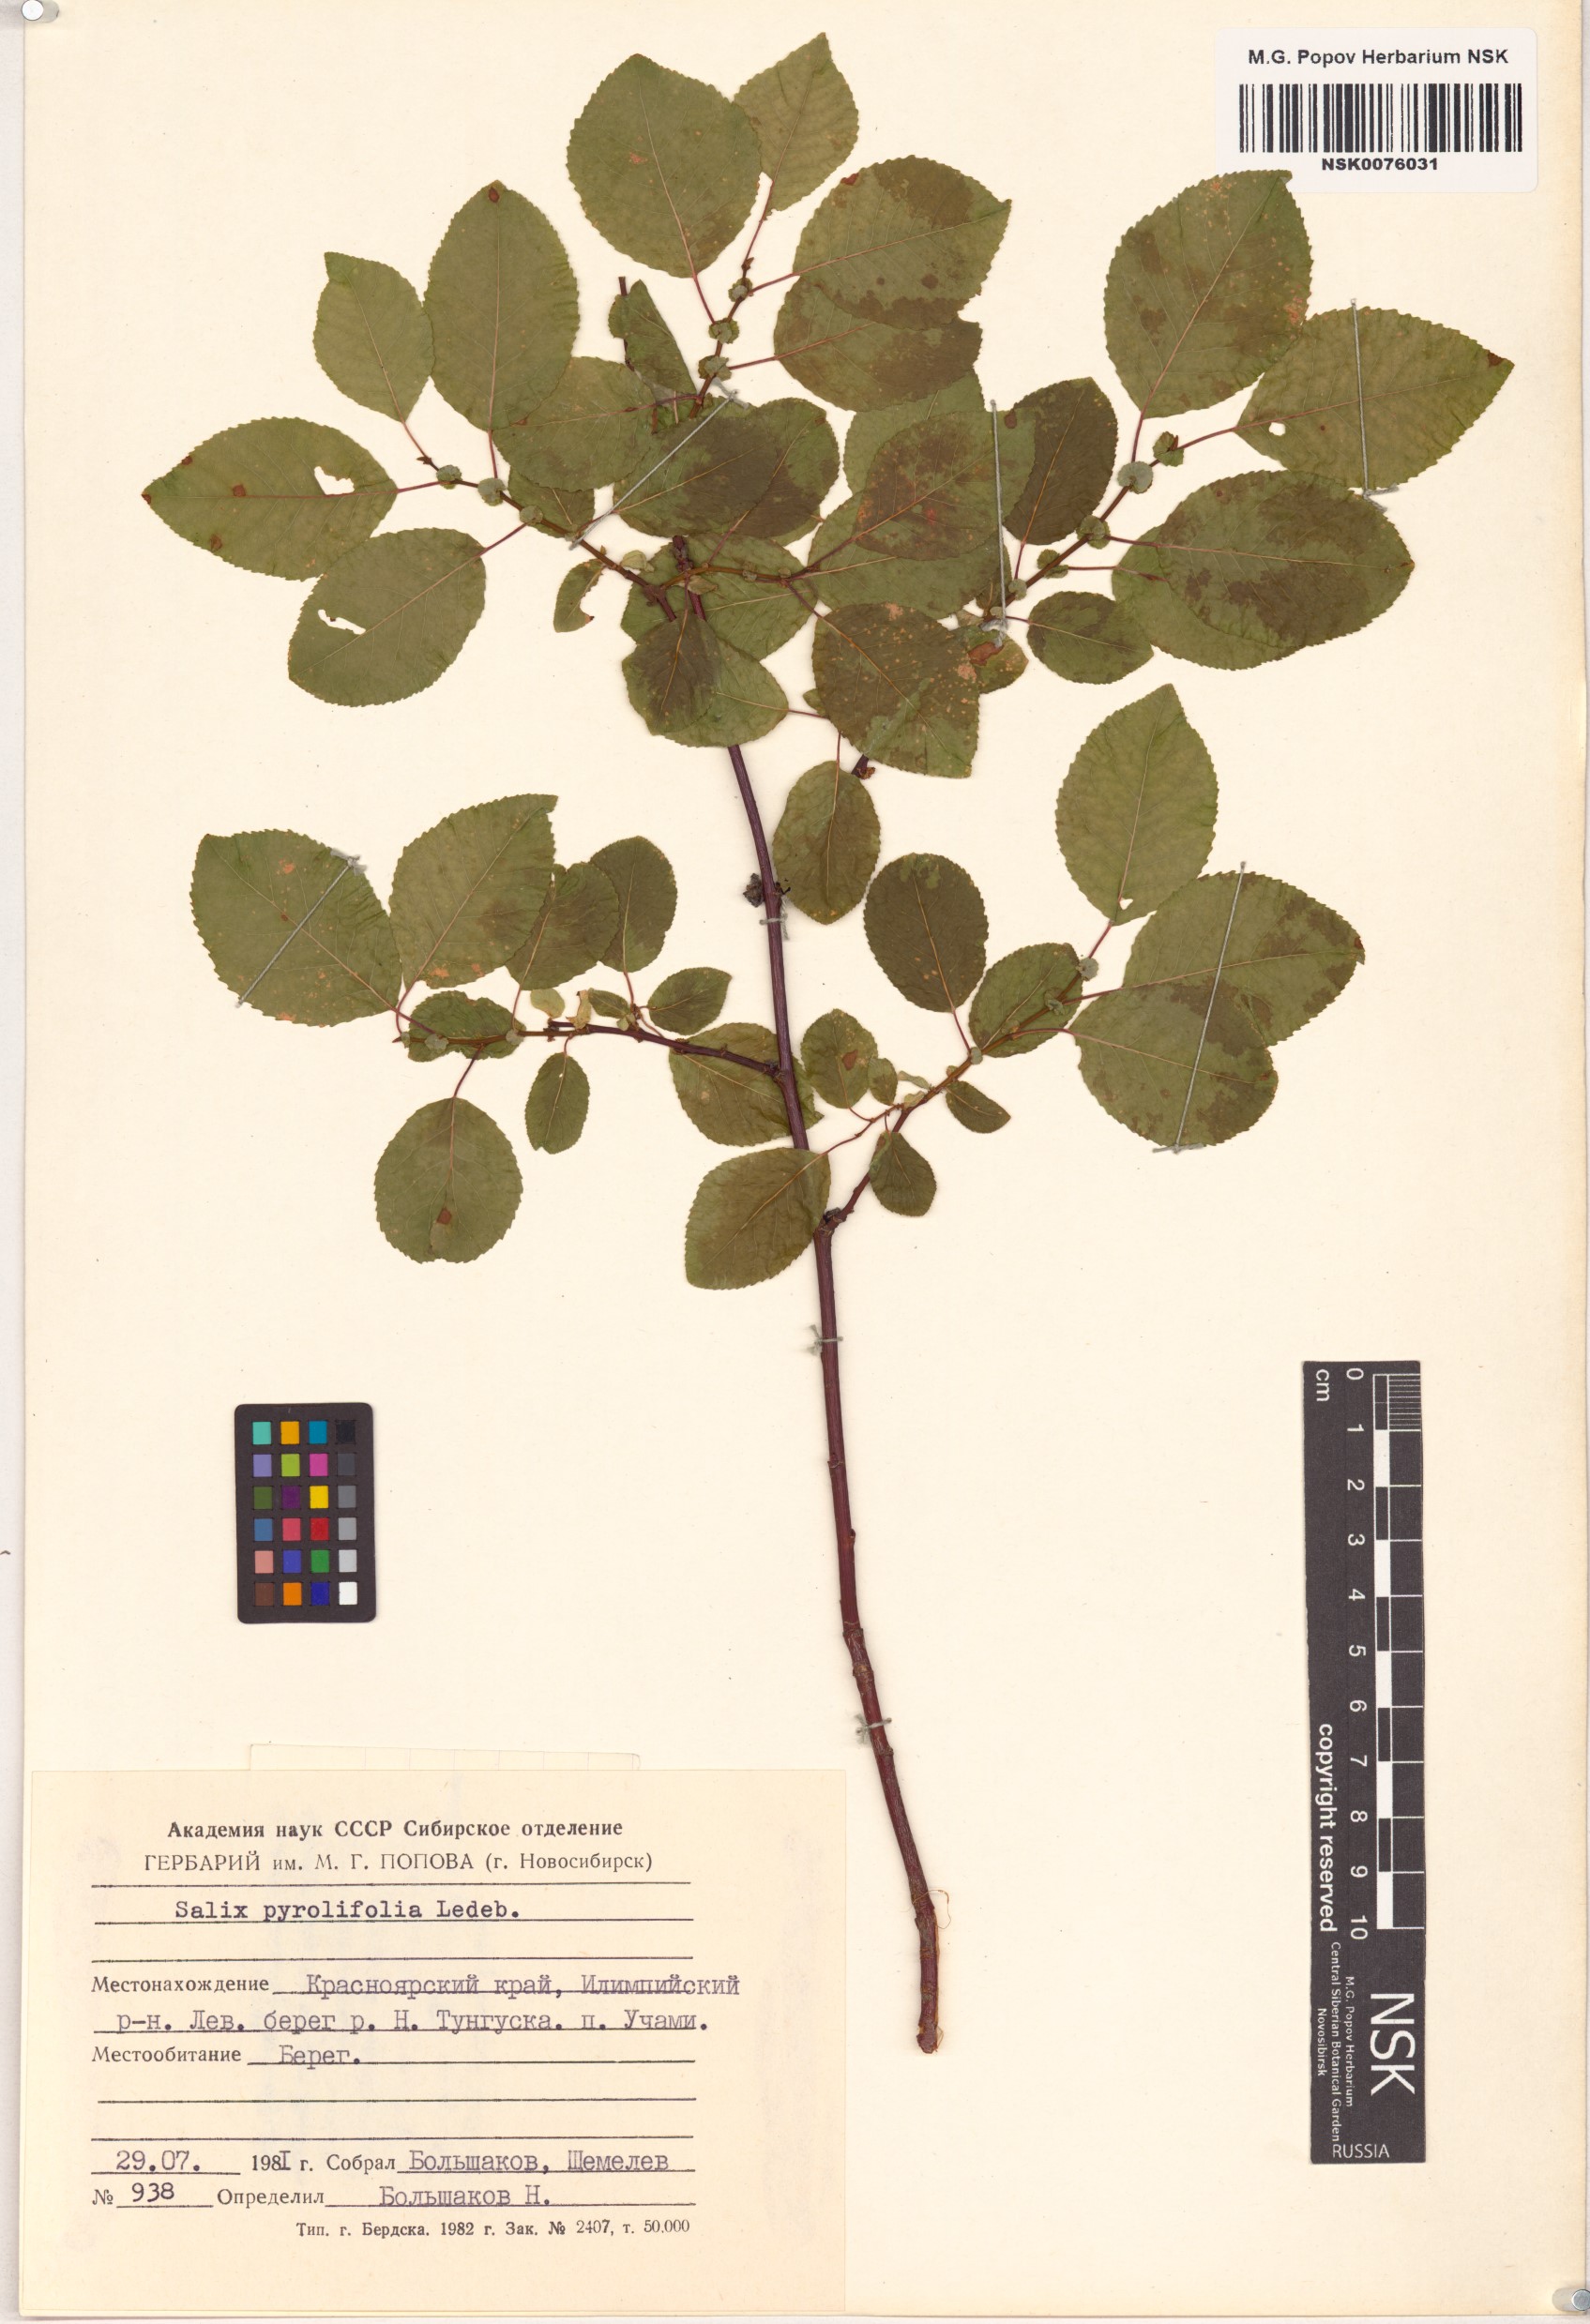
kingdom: Plantae
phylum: Tracheophyta
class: Magnoliopsida
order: Malpighiales
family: Salicaceae
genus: Salix
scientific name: Salix pyrolifolia
